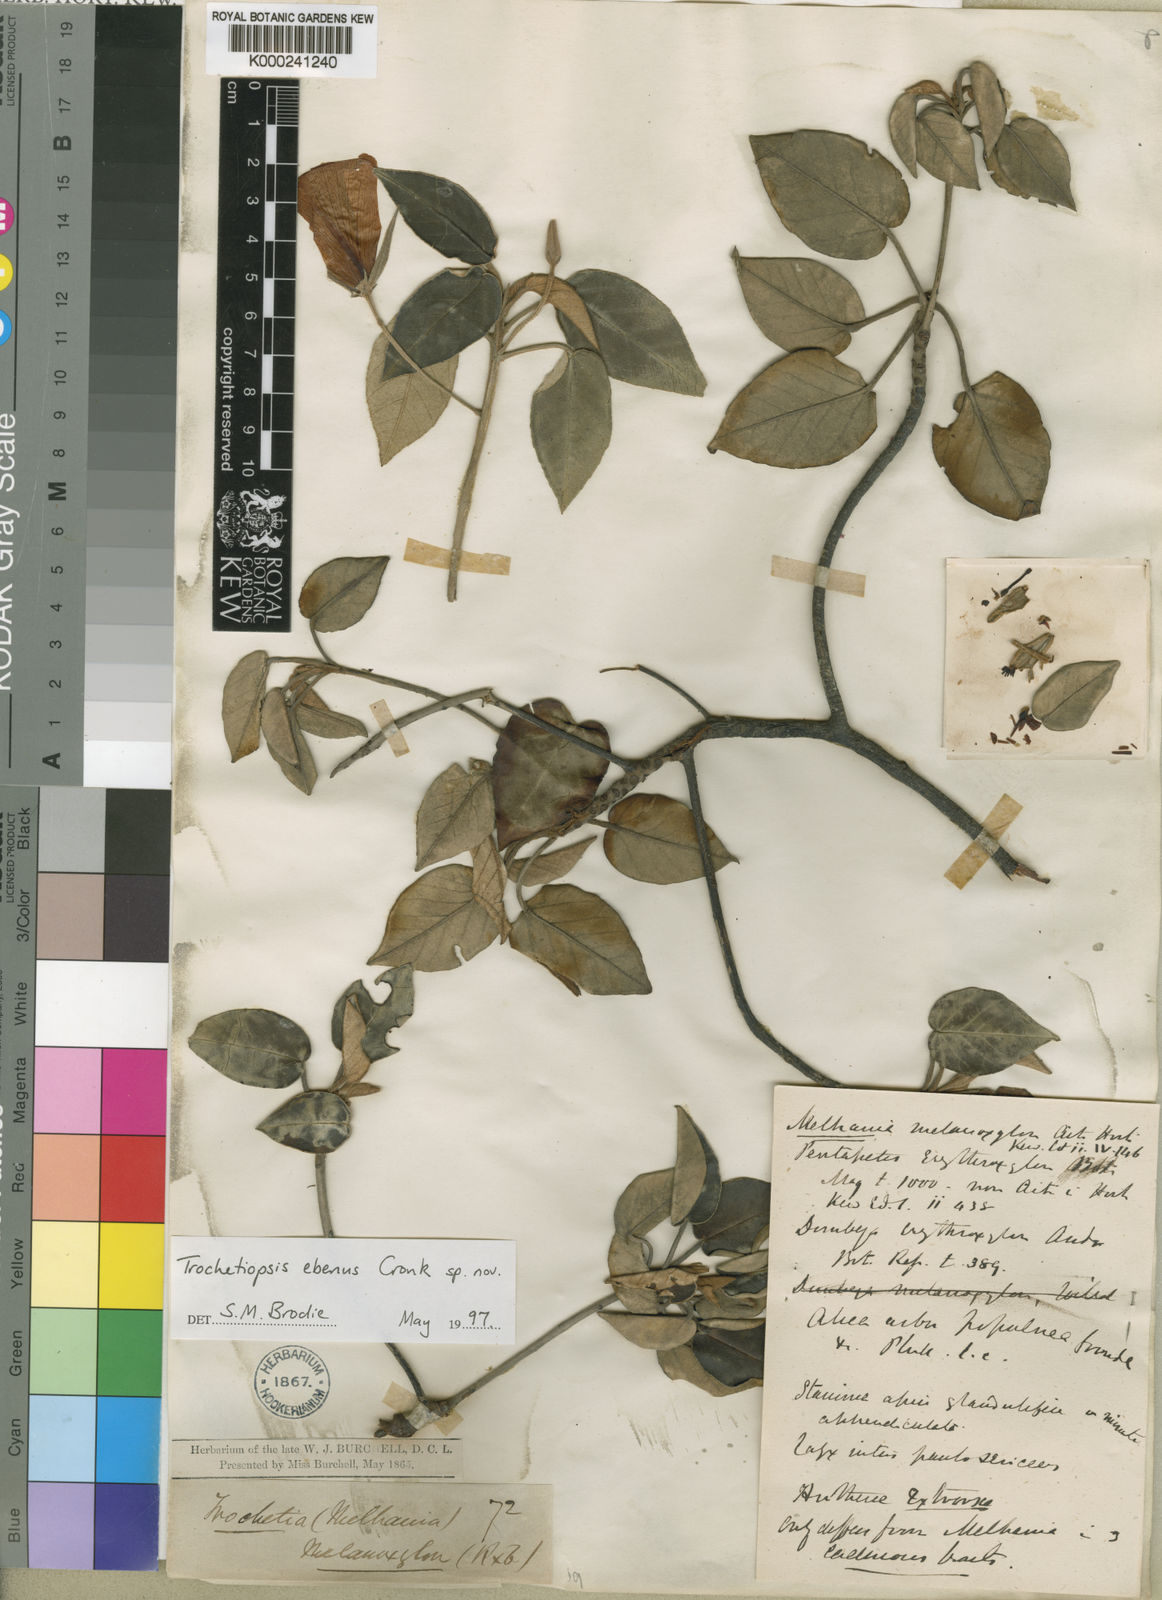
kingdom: Plantae
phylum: Tracheophyta
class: Magnoliopsida
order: Malvales
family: Malvaceae
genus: Melhania
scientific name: Melhania ebena
